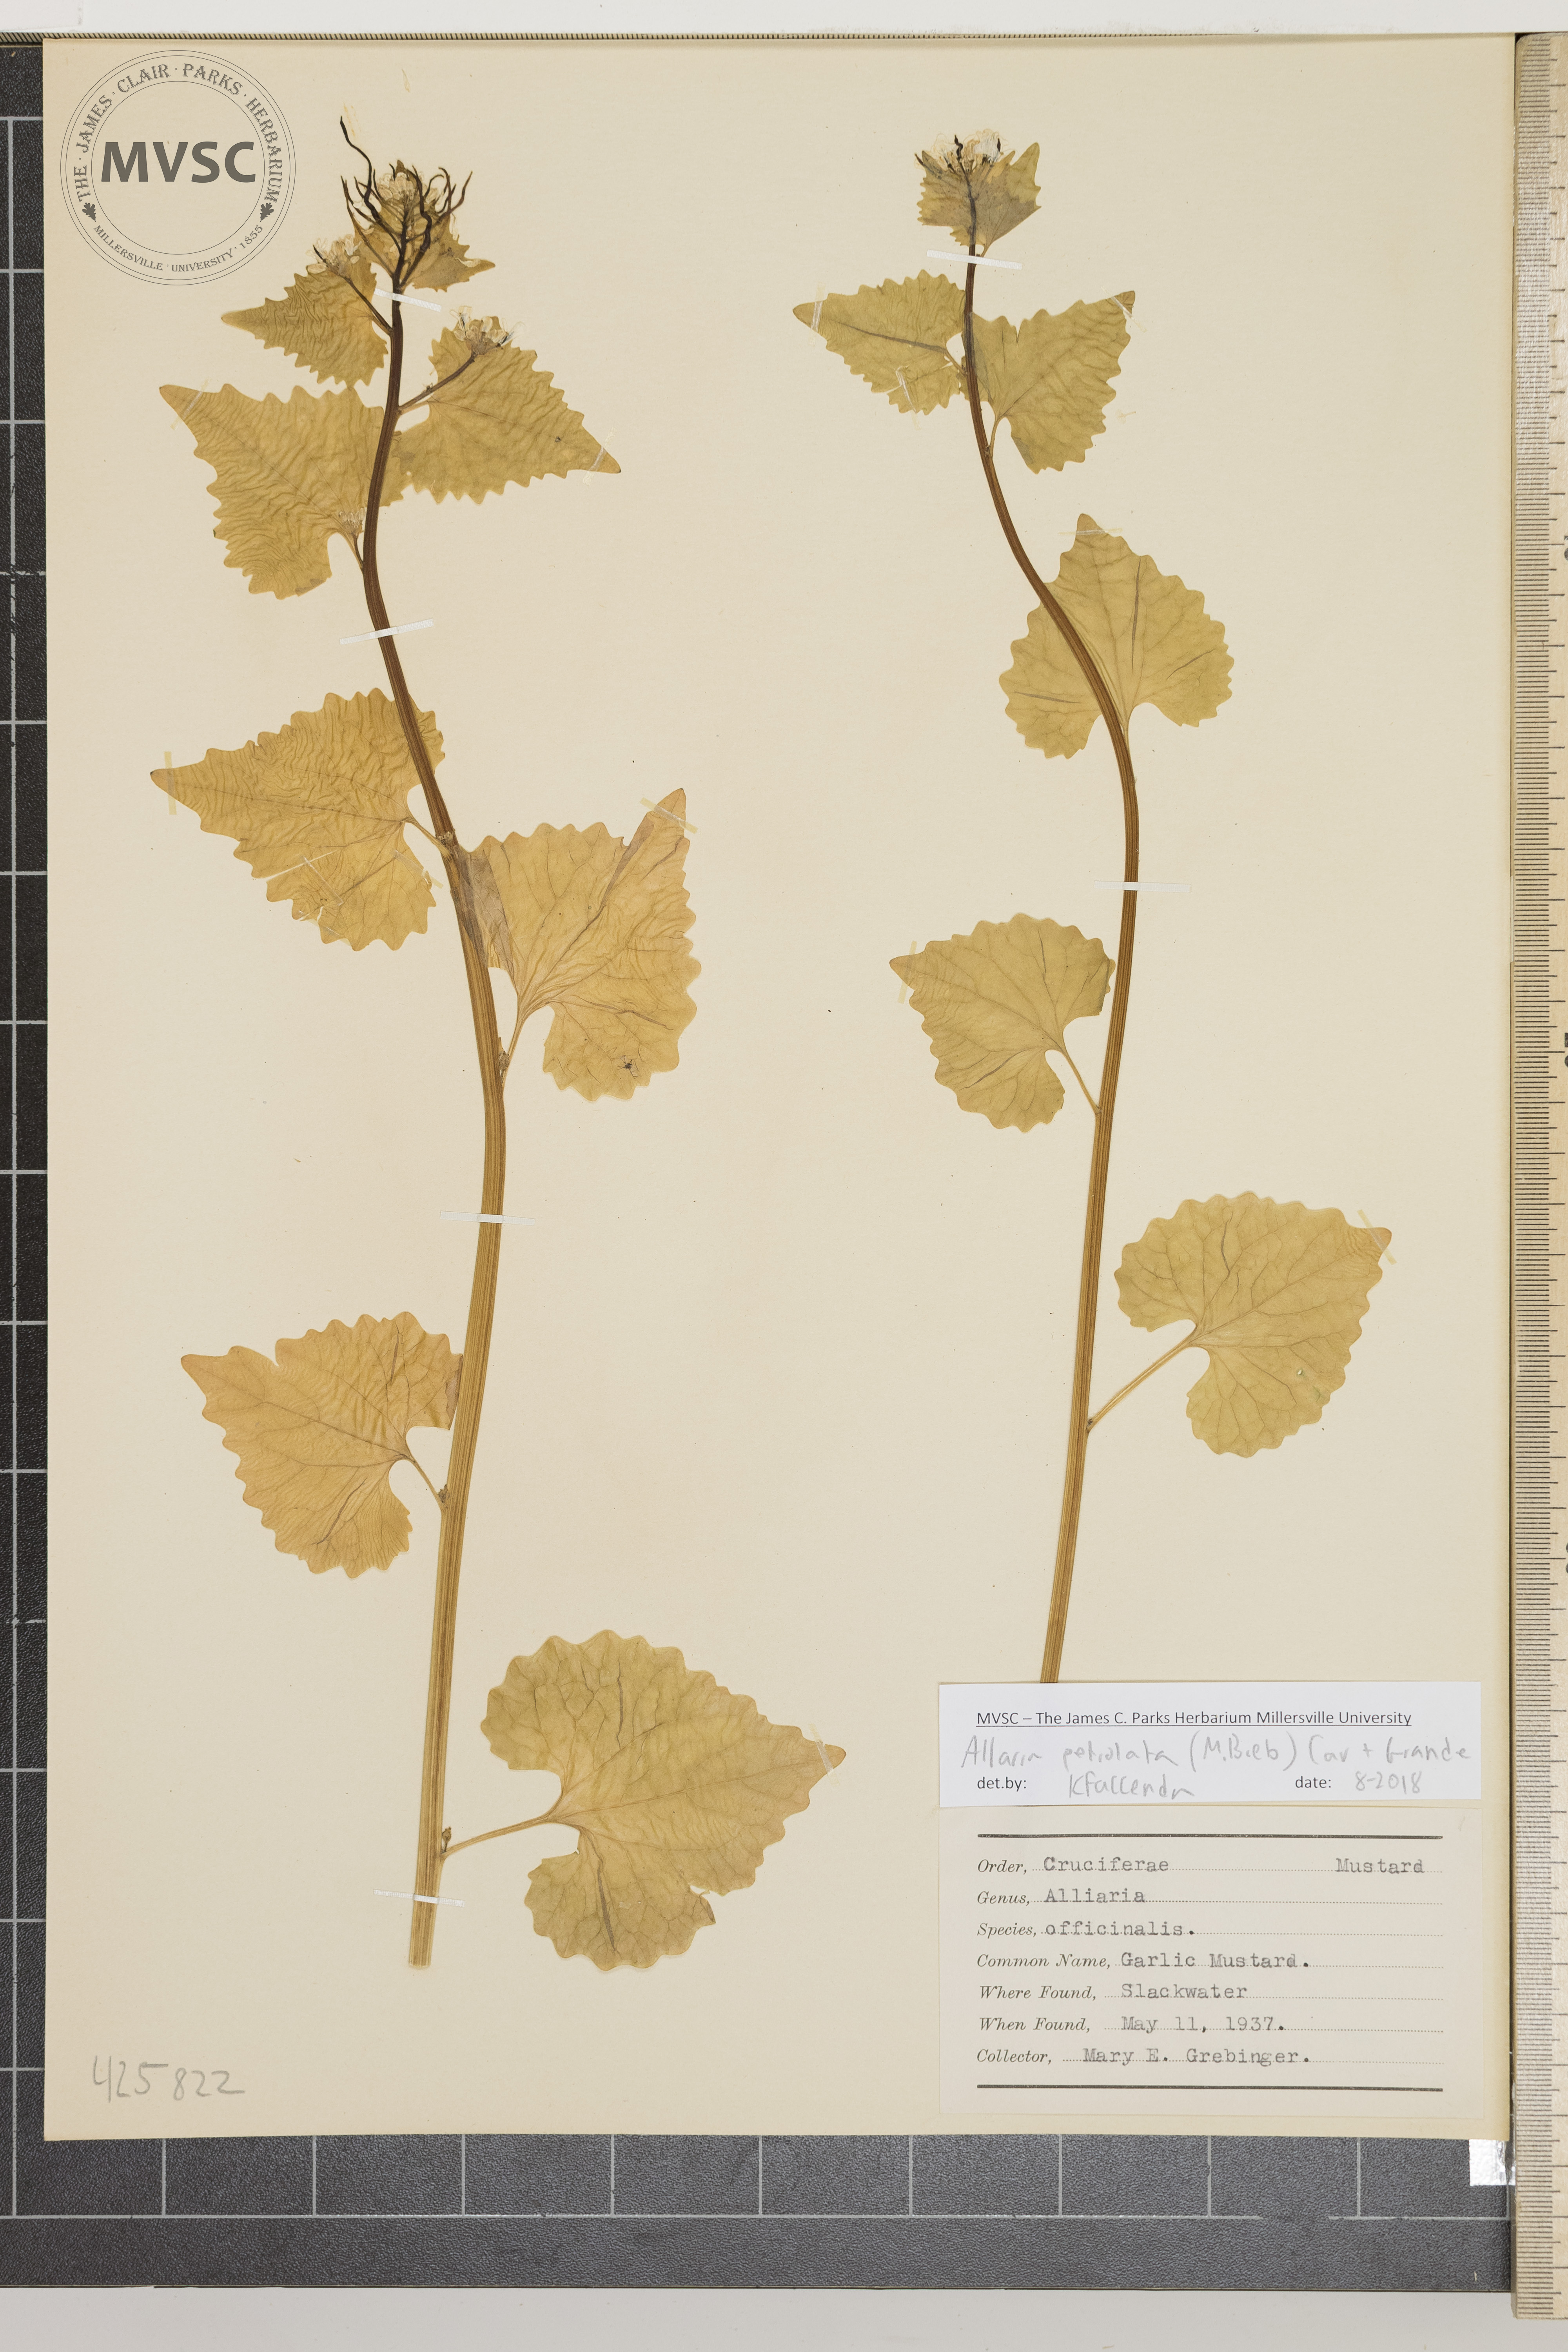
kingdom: Plantae
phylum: Tracheophyta
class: Magnoliopsida
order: Brassicales
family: Brassicaceae
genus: Alliaria
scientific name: Alliaria petiolata
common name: Garlic mustard
